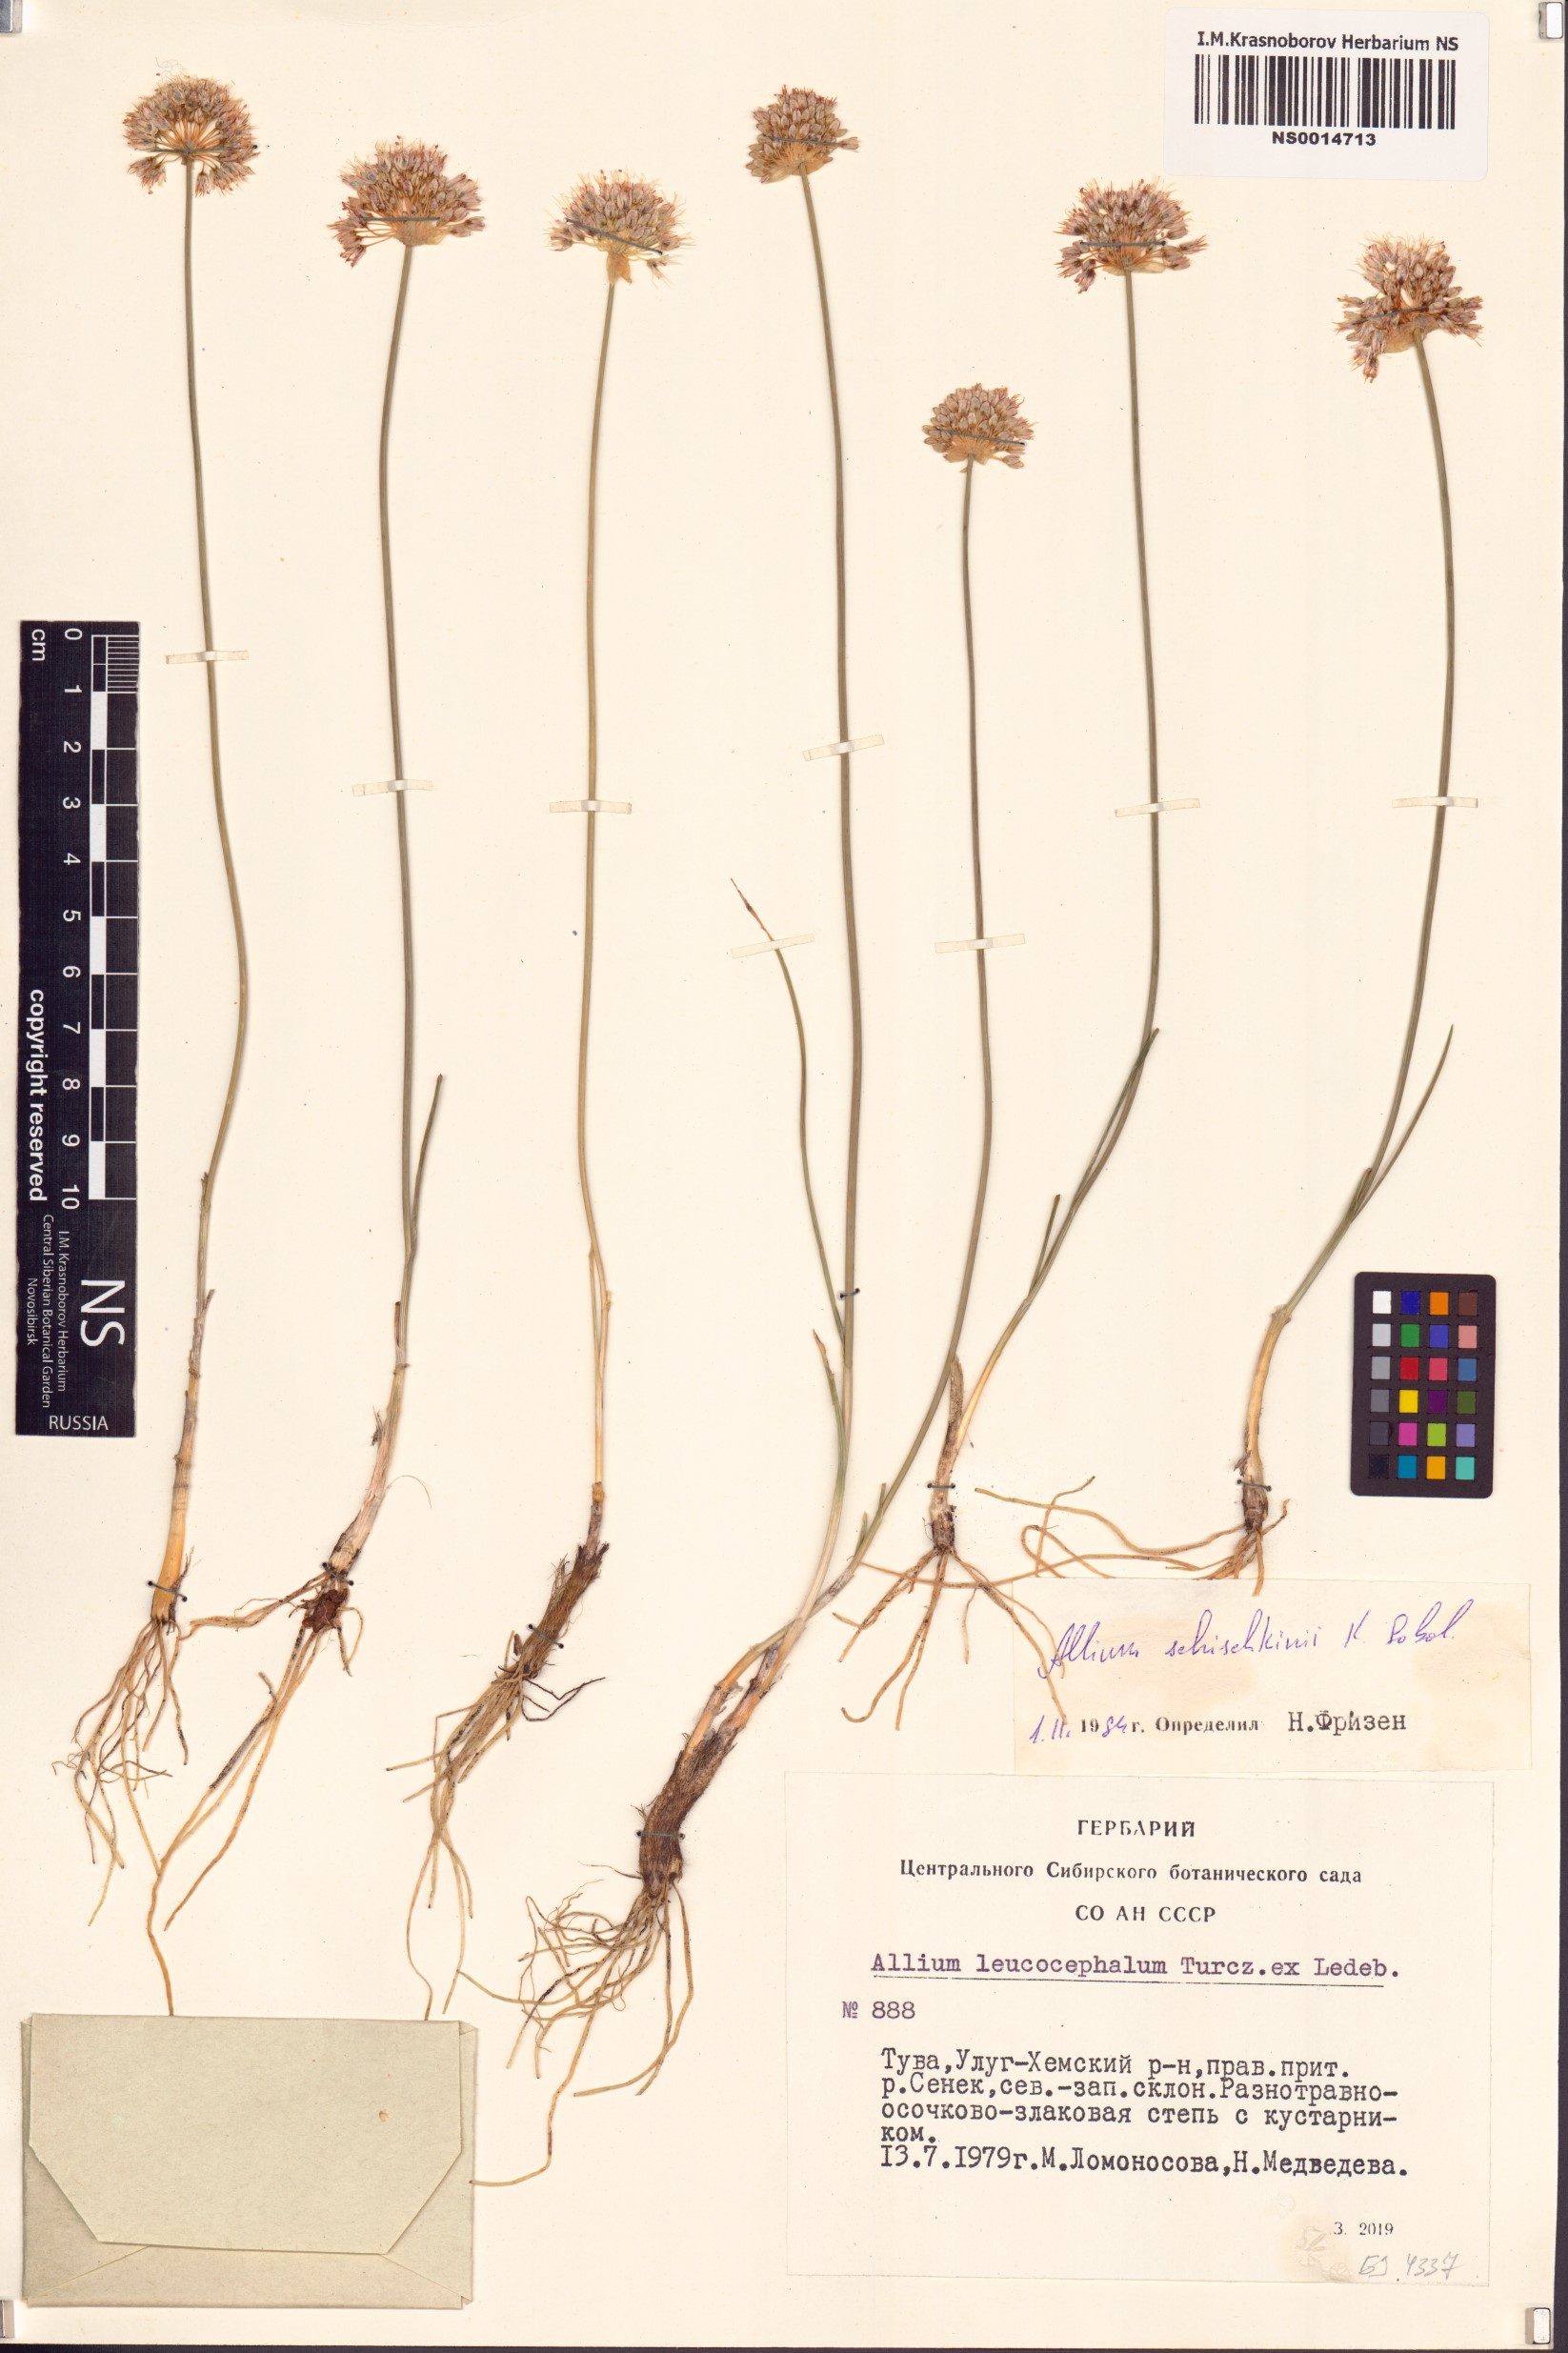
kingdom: Plantae
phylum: Tracheophyta
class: Liliopsida
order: Asparagales
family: Amaryllidaceae
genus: Allium
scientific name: Allium schischkinii
